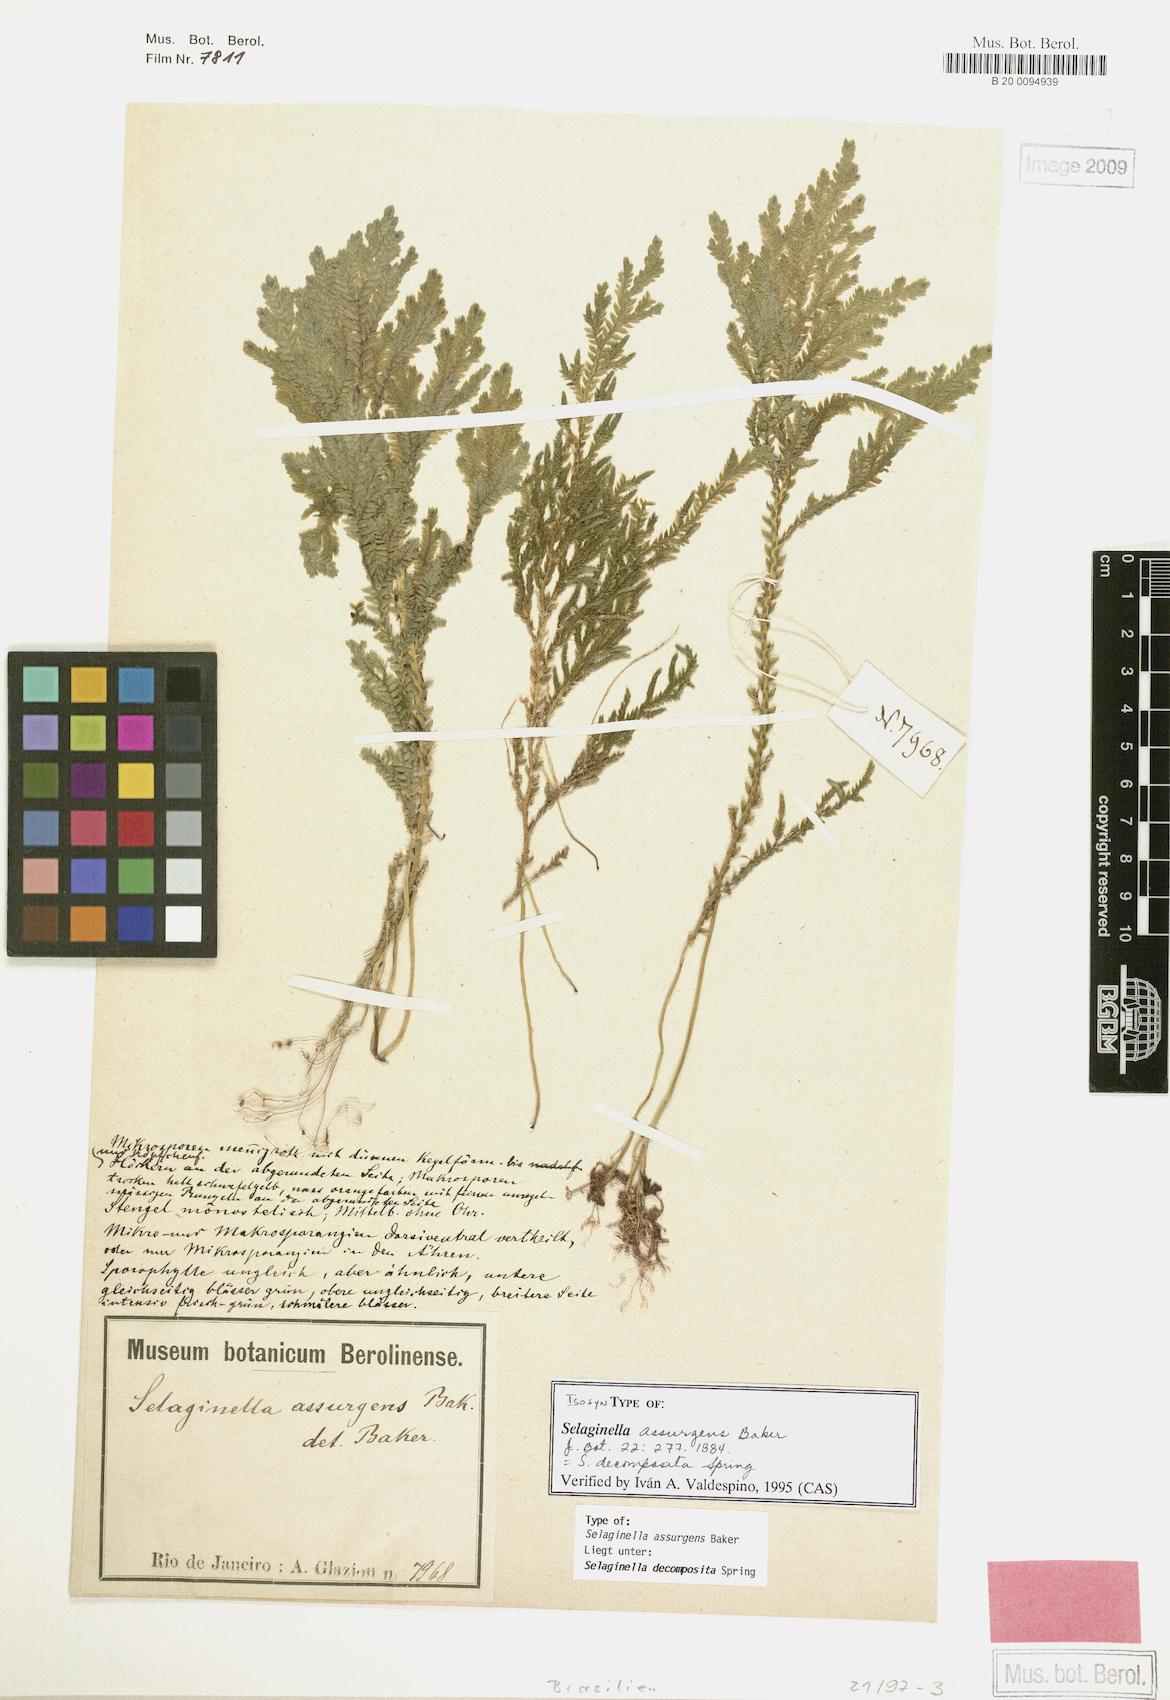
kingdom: Plantae
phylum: Tracheophyta
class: Lycopodiopsida
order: Selaginellales
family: Selaginellaceae
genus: Selaginella
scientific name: Selaginella decomposita
